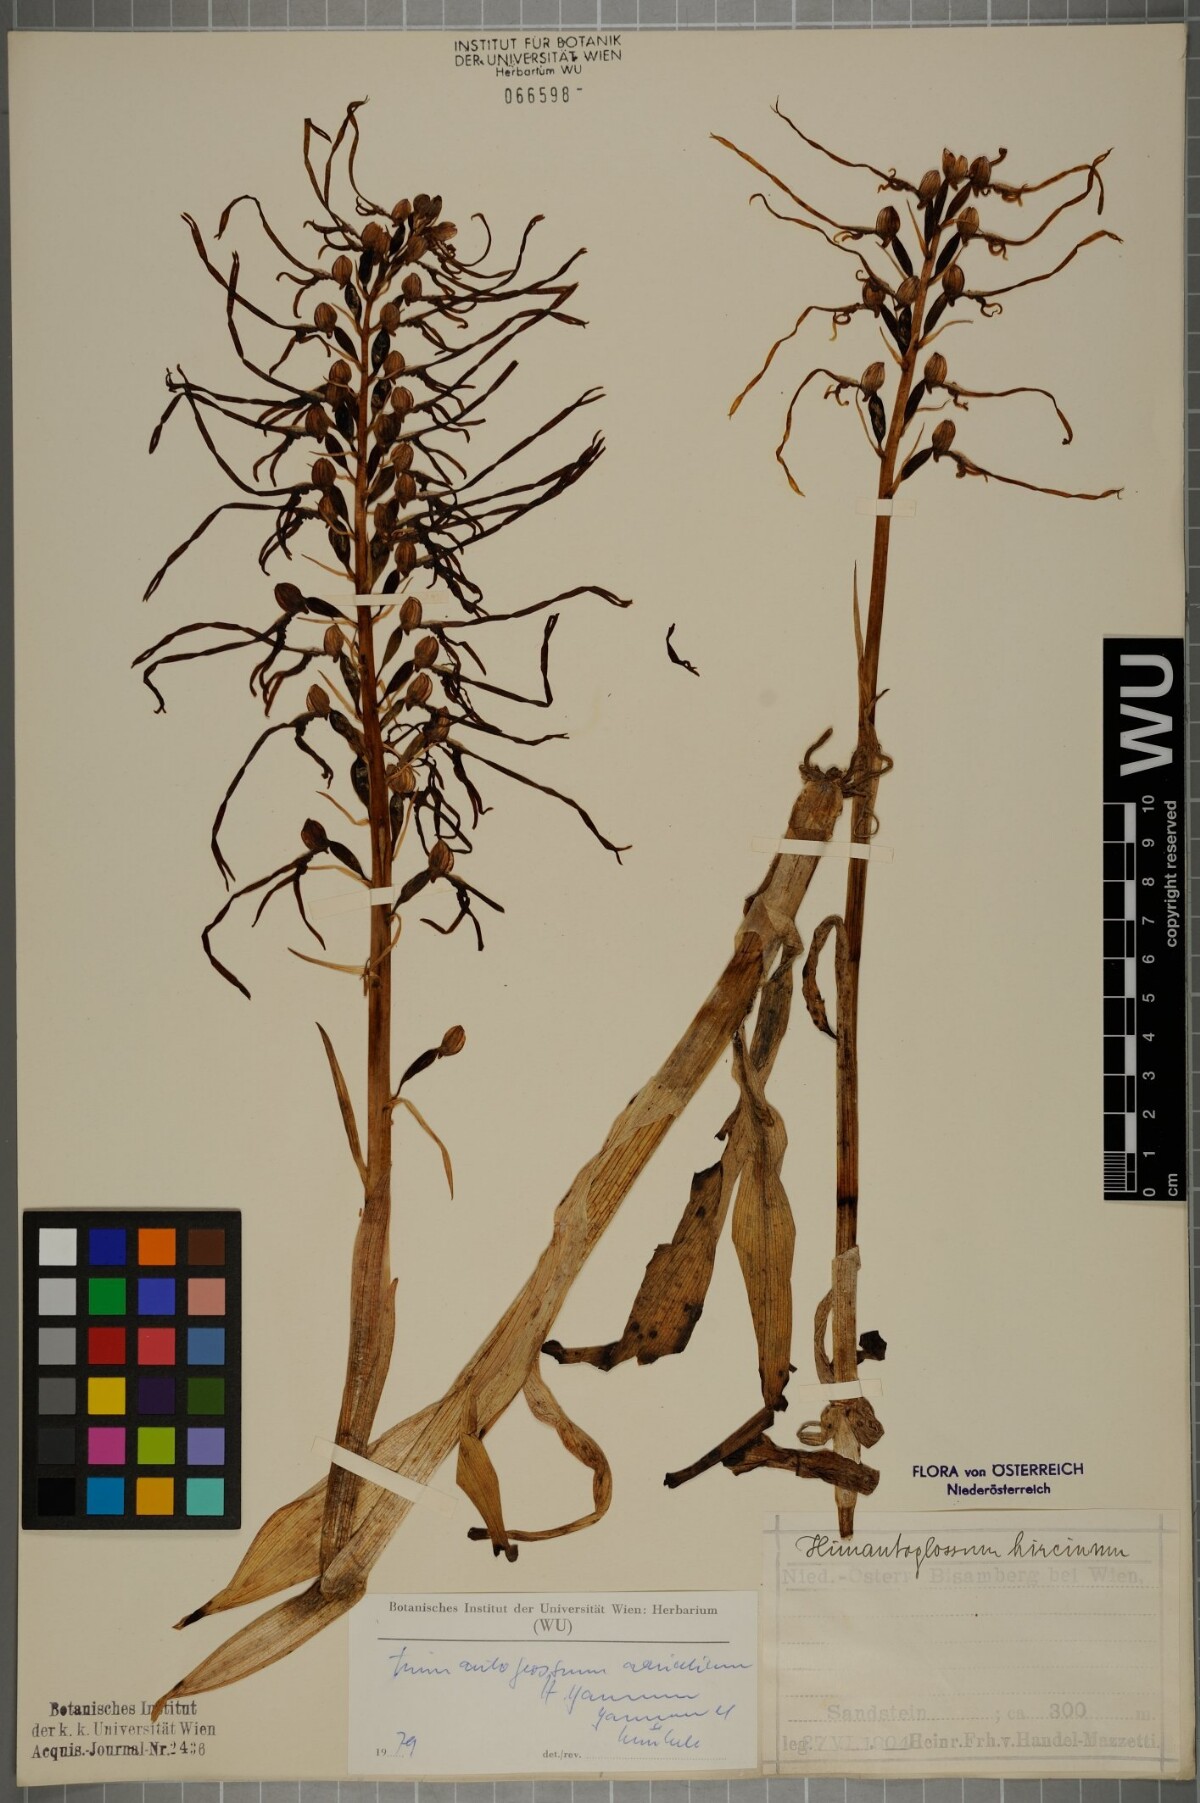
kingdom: Plantae
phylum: Tracheophyta
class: Liliopsida
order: Asparagales
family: Orchidaceae
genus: Himantoglossum
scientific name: Himantoglossum adriaticum
